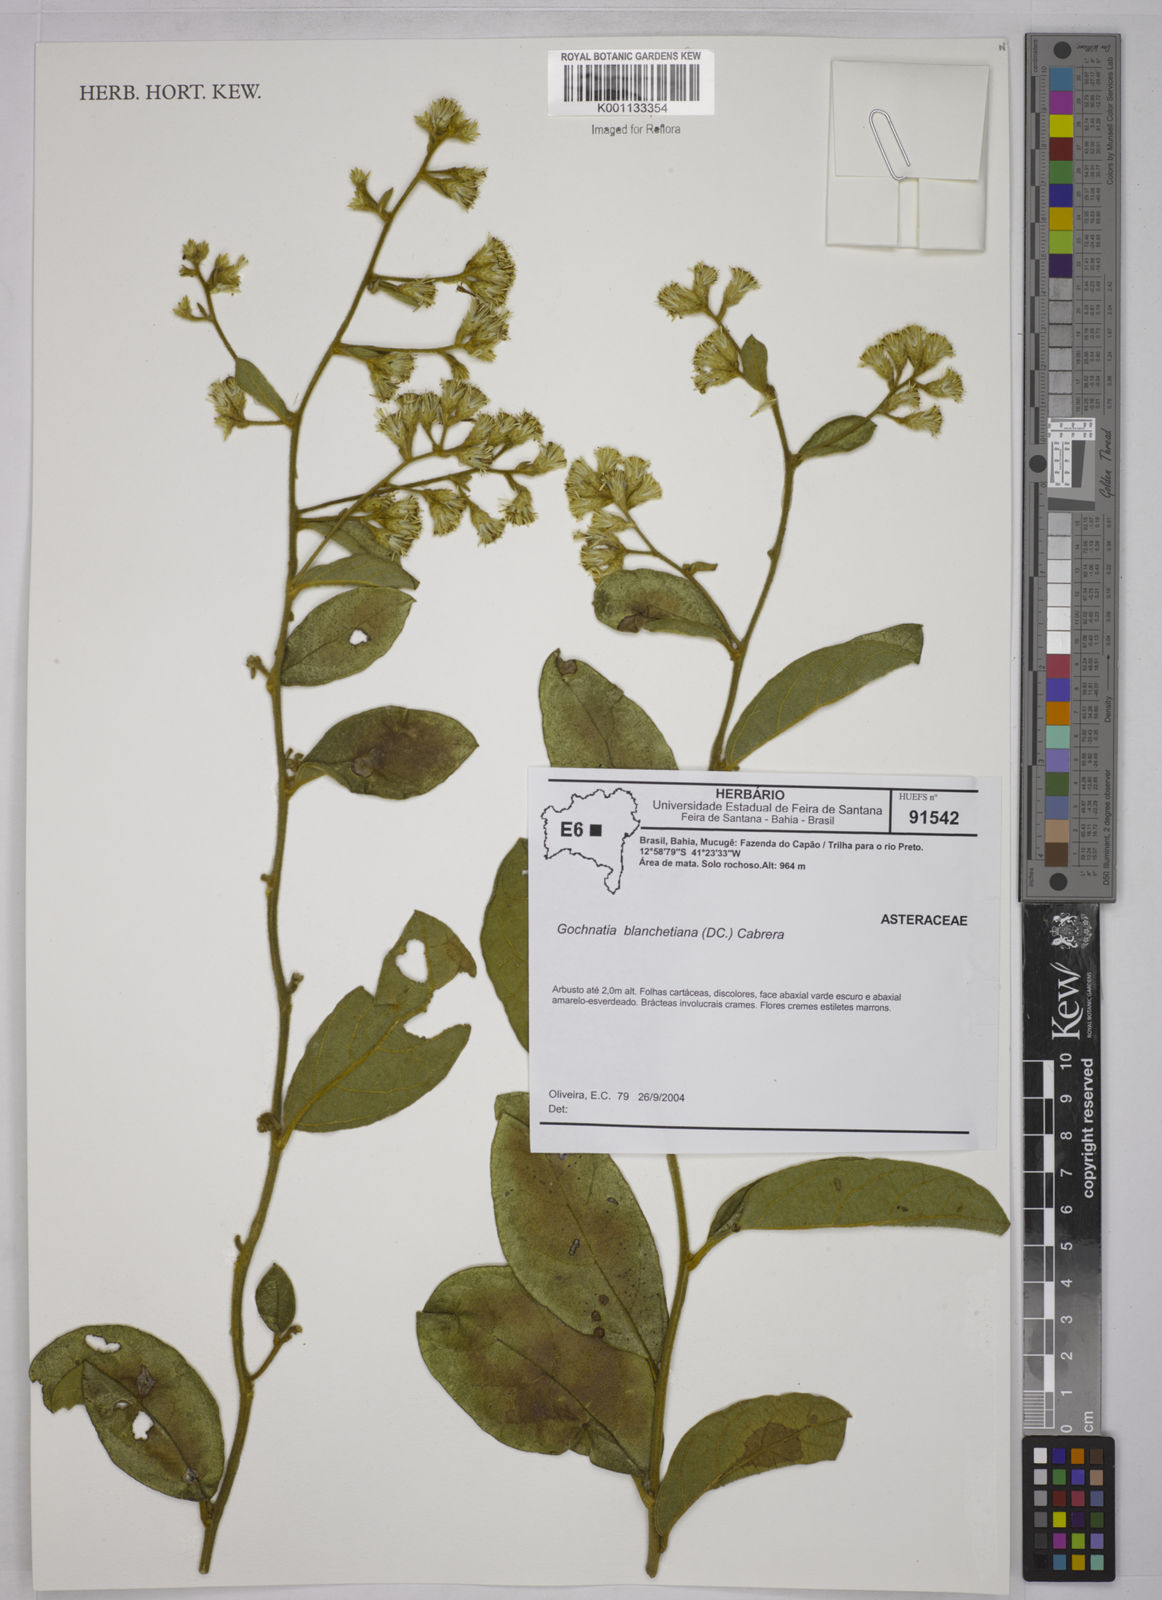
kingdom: Plantae
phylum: Tracheophyta
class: Magnoliopsida
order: Asterales
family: Asteraceae
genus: Moquiniastrum
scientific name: Moquiniastrum blanchetianum
